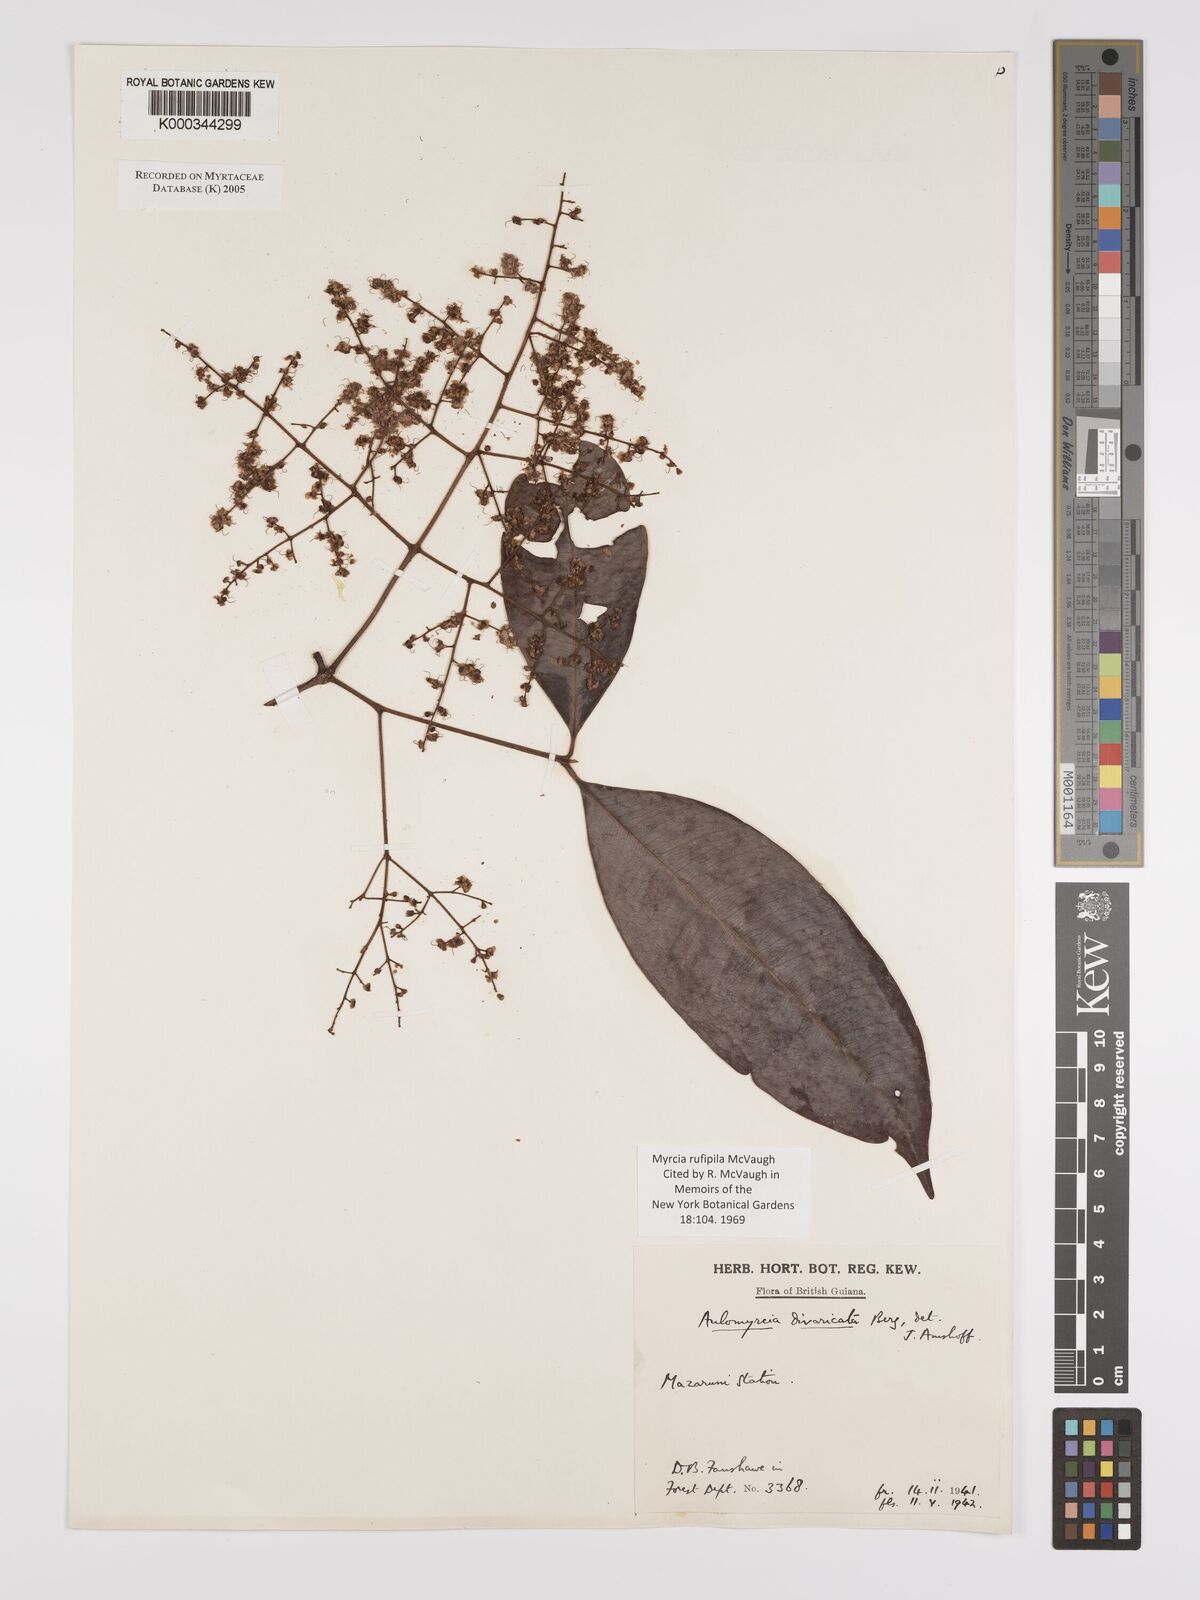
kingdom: Plantae
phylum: Tracheophyta
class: Magnoliopsida
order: Myrtales
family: Myrtaceae
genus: Myrcia
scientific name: Myrcia rufipila
